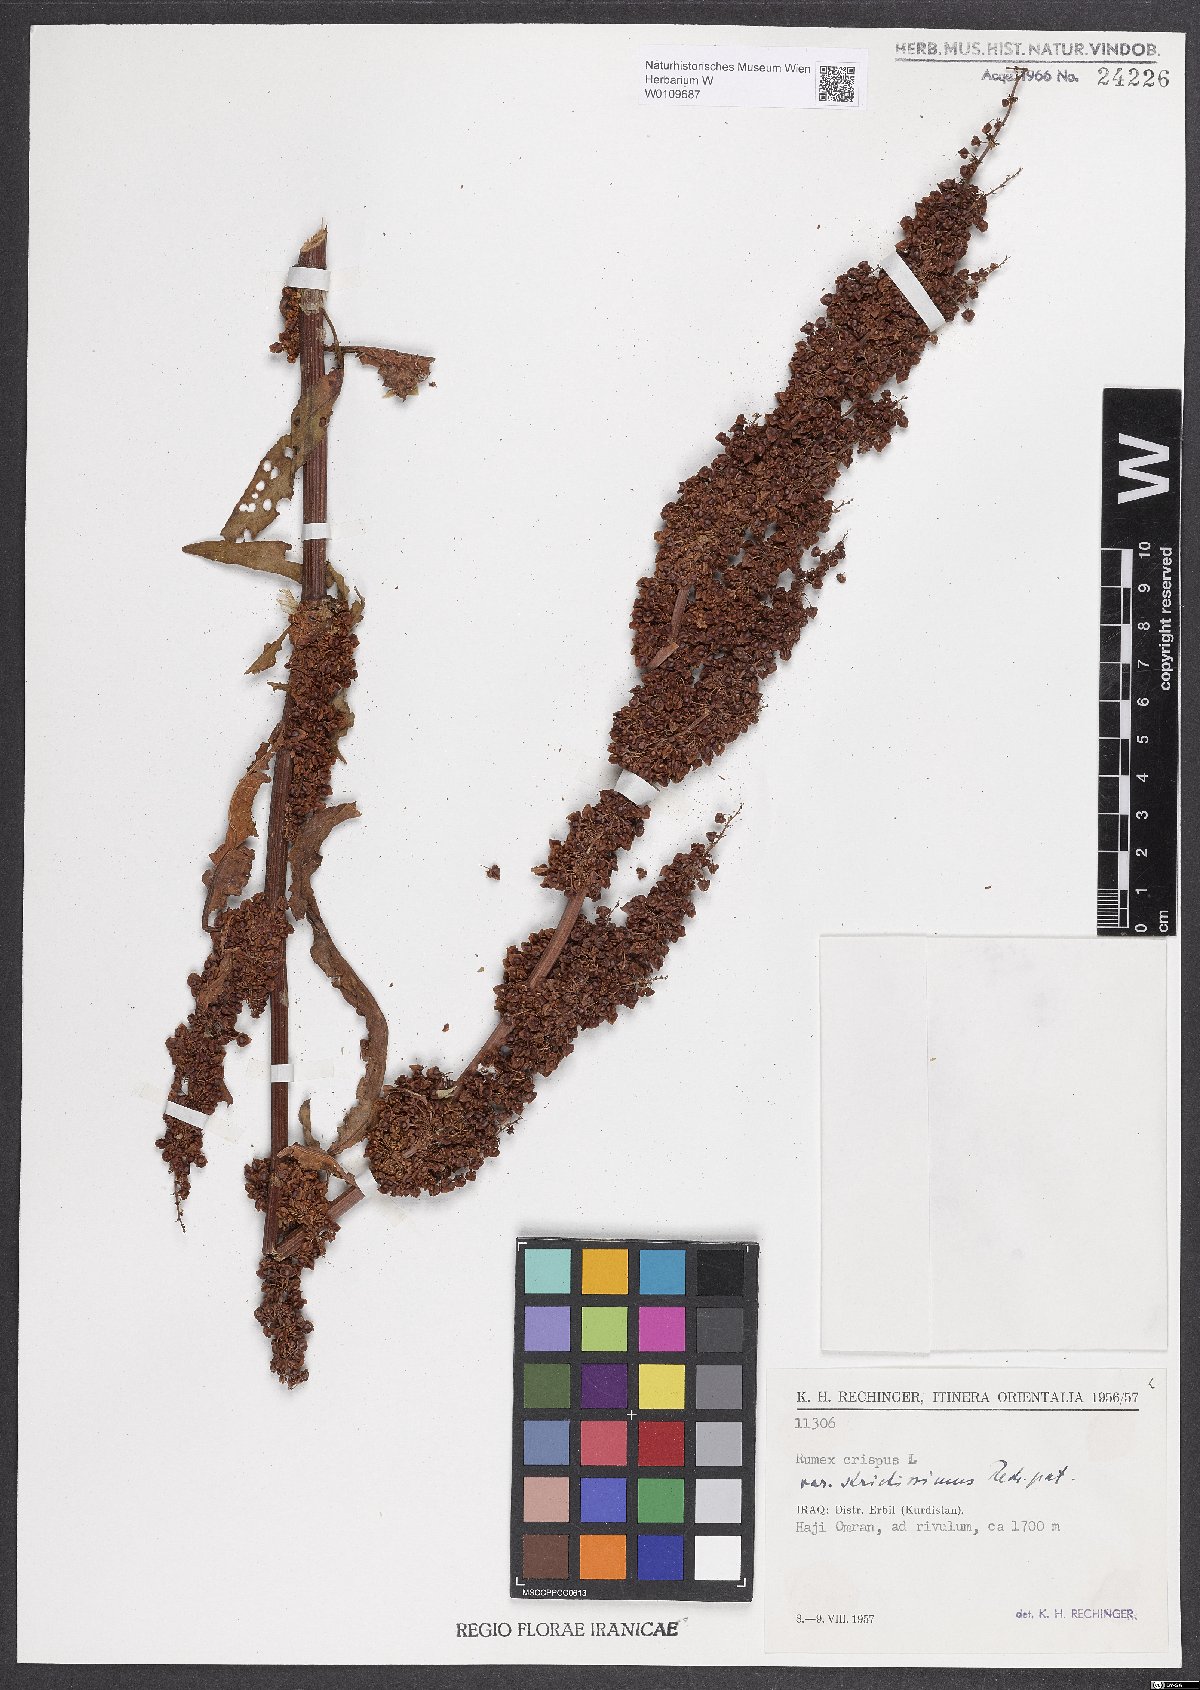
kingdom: Plantae
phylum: Tracheophyta
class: Magnoliopsida
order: Caryophyllales
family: Polygonaceae
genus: Rumex
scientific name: Rumex crispus
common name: Curled dock
